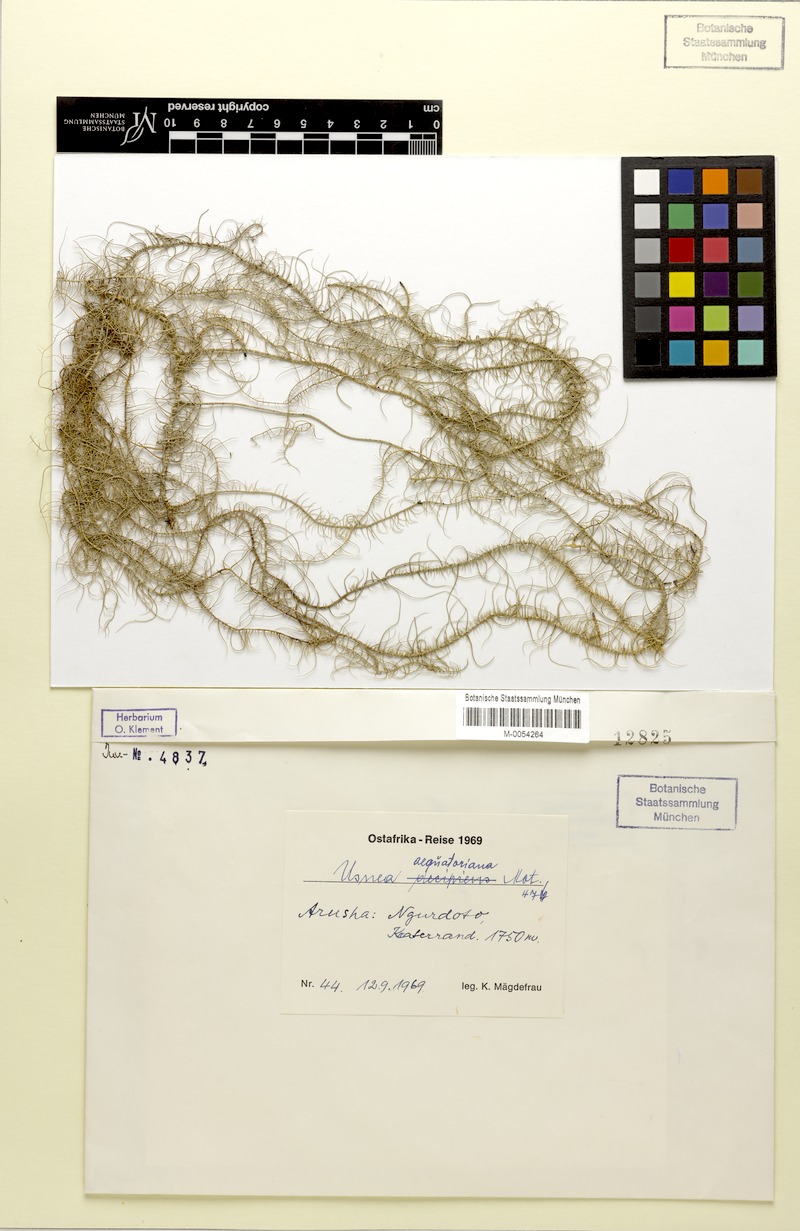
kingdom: Fungi
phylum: Ascomycota
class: Lecanoromycetes
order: Lecanorales
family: Parmeliaceae
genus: Usnea
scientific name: Usnea
